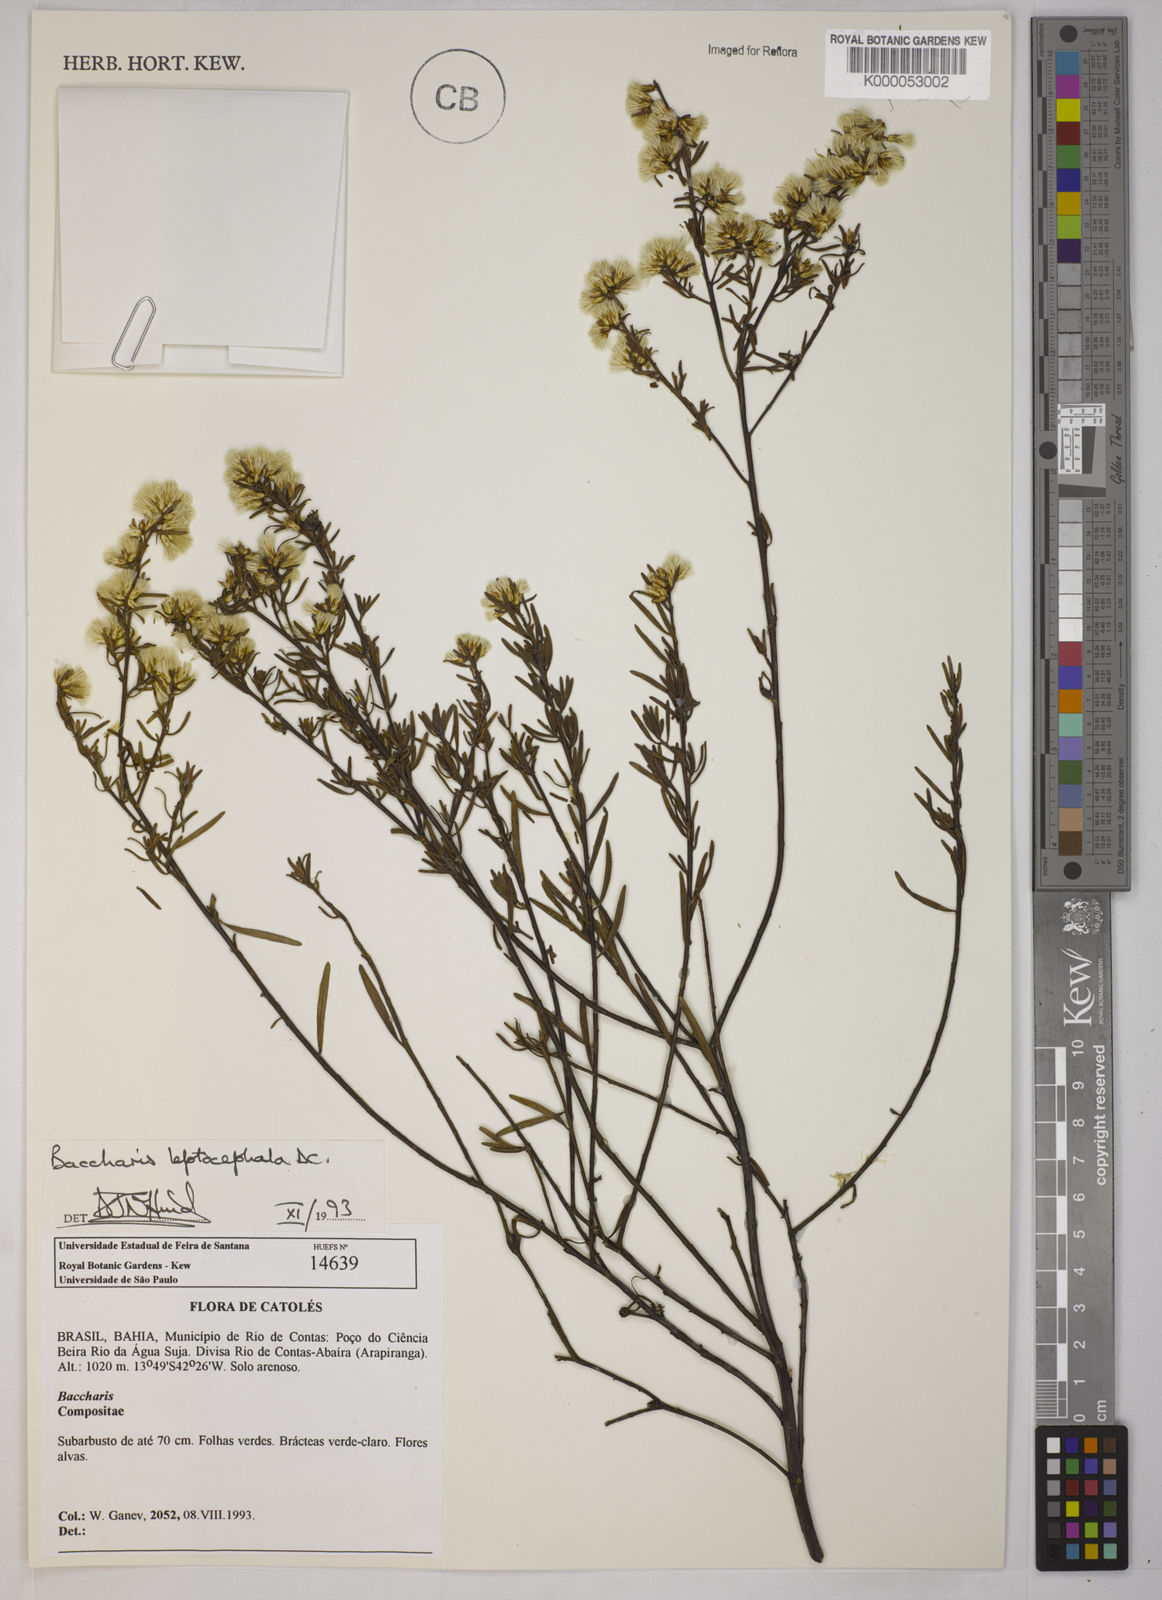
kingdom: Plantae
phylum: Tracheophyta
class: Magnoliopsida
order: Asterales
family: Asteraceae
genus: Baccharis
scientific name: Baccharis leptocephala
